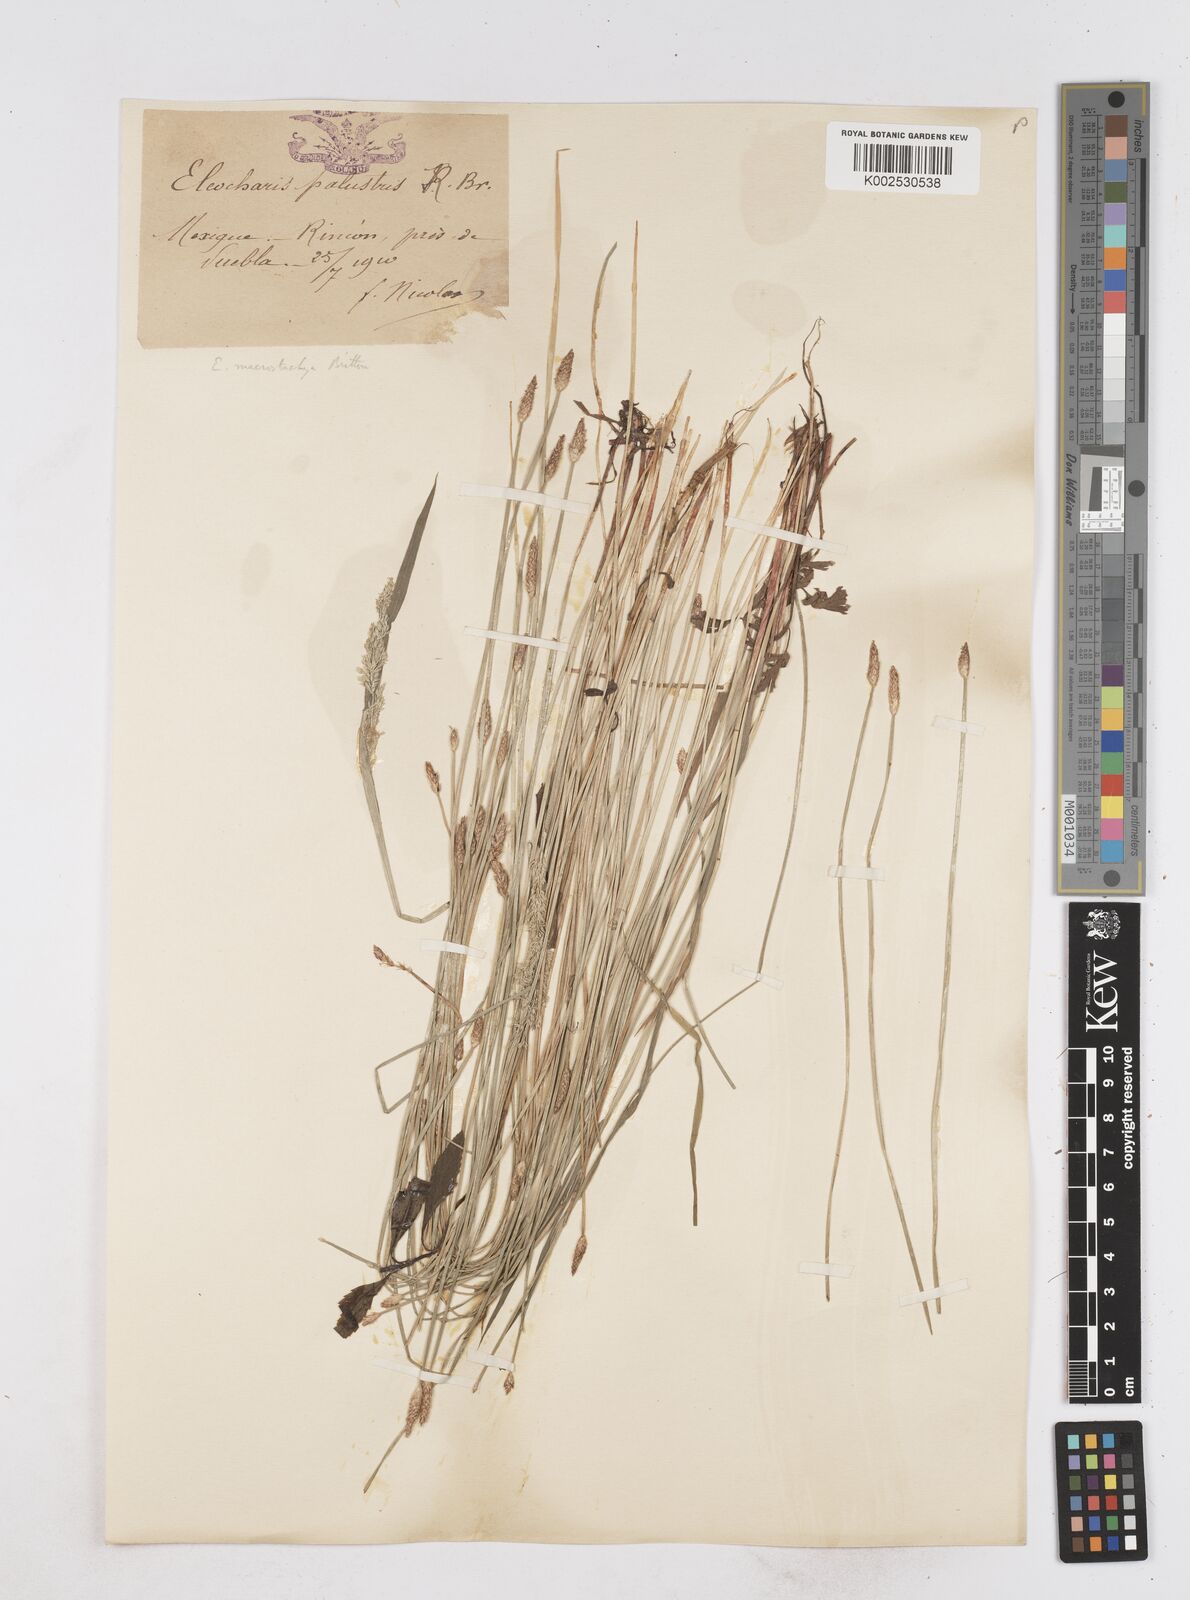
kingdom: Plantae
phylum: Tracheophyta
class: Liliopsida
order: Poales
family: Cyperaceae
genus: Eleocharis
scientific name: Eleocharis macrostachya
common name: Pale spikerush
